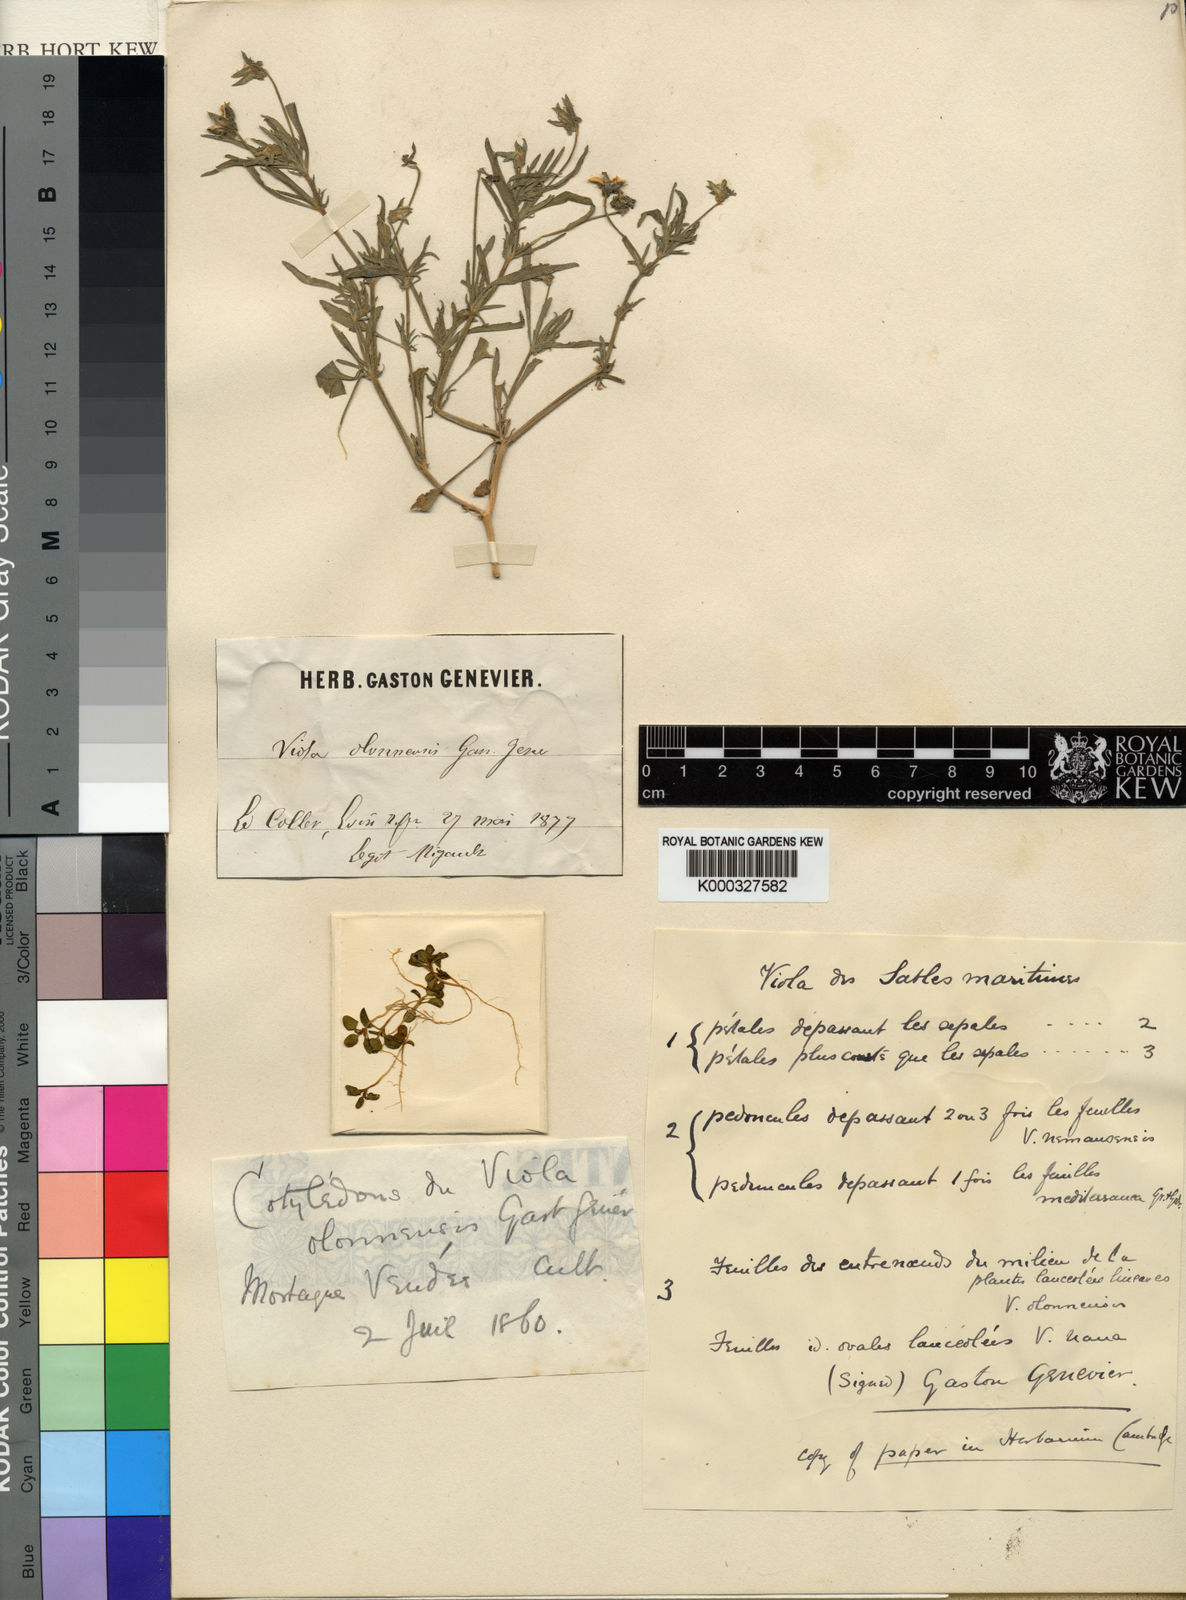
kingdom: Plantae
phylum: Tracheophyta
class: Magnoliopsida
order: Malpighiales
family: Violaceae
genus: Viola
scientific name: Viola arvensis
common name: Field pansy
